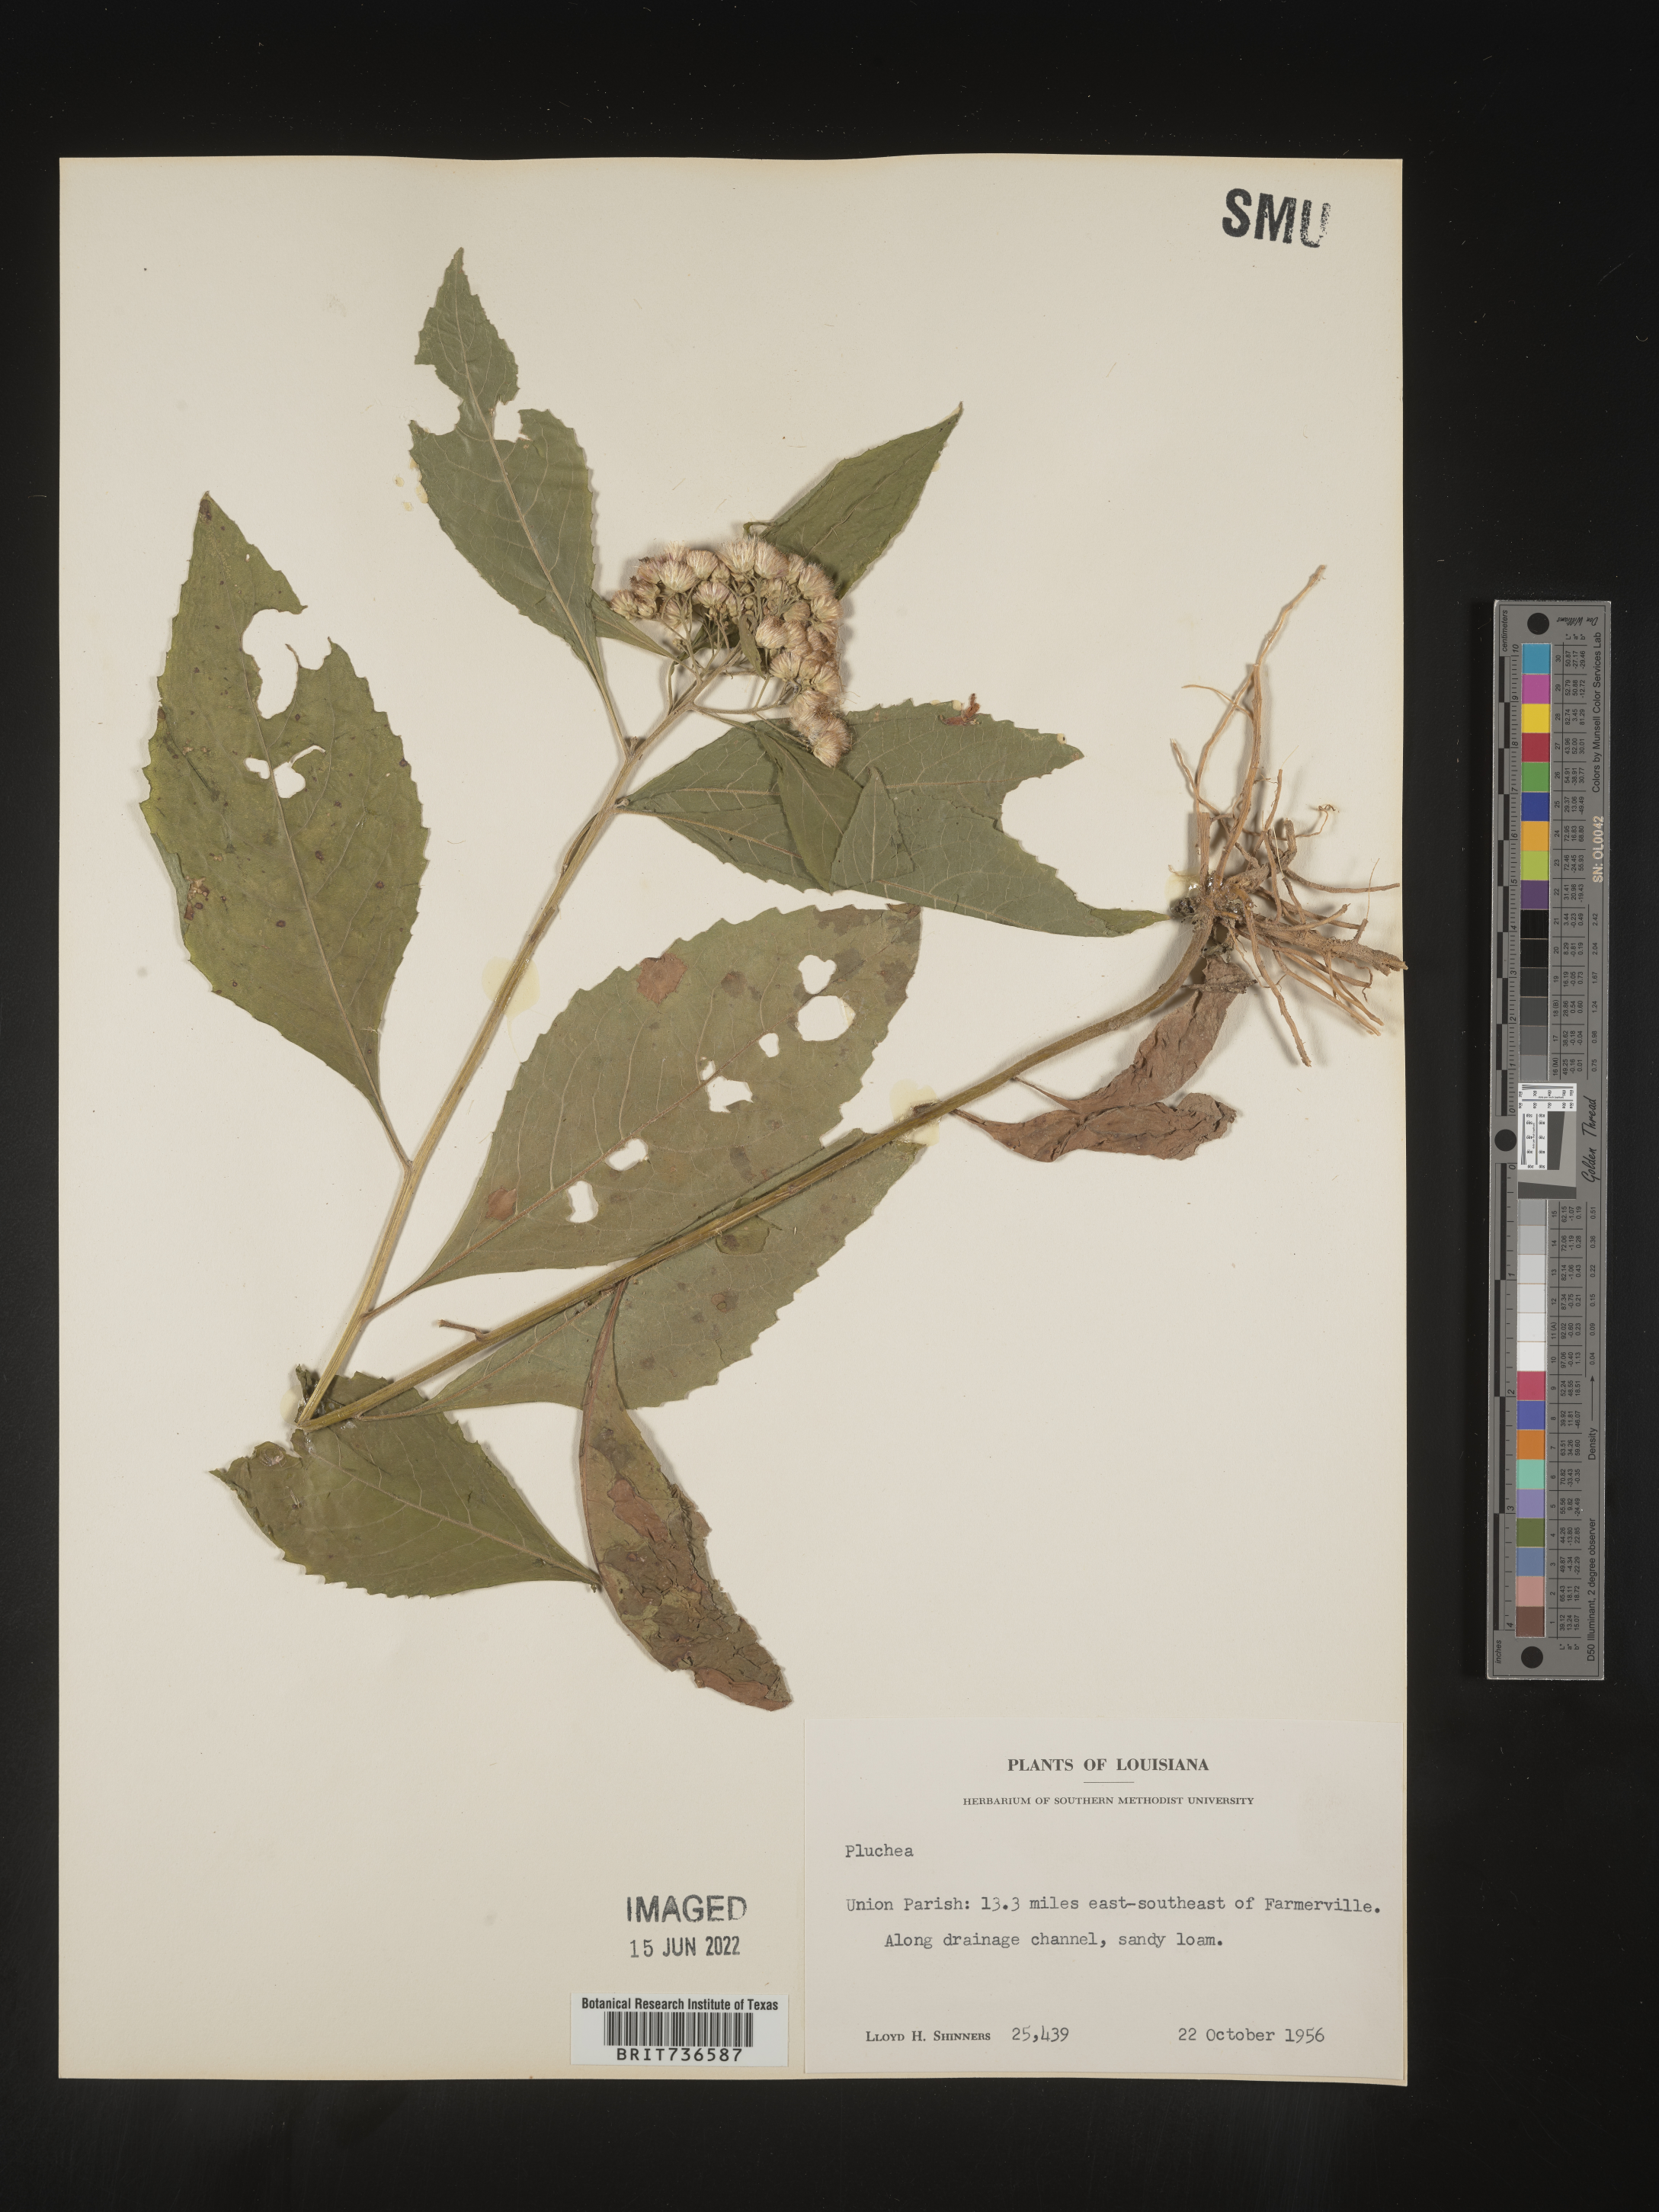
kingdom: Plantae
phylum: Tracheophyta
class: Magnoliopsida
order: Asterales
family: Asteraceae
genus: Pluchea
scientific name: Pluchea camphorata
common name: Camphor pluchea
